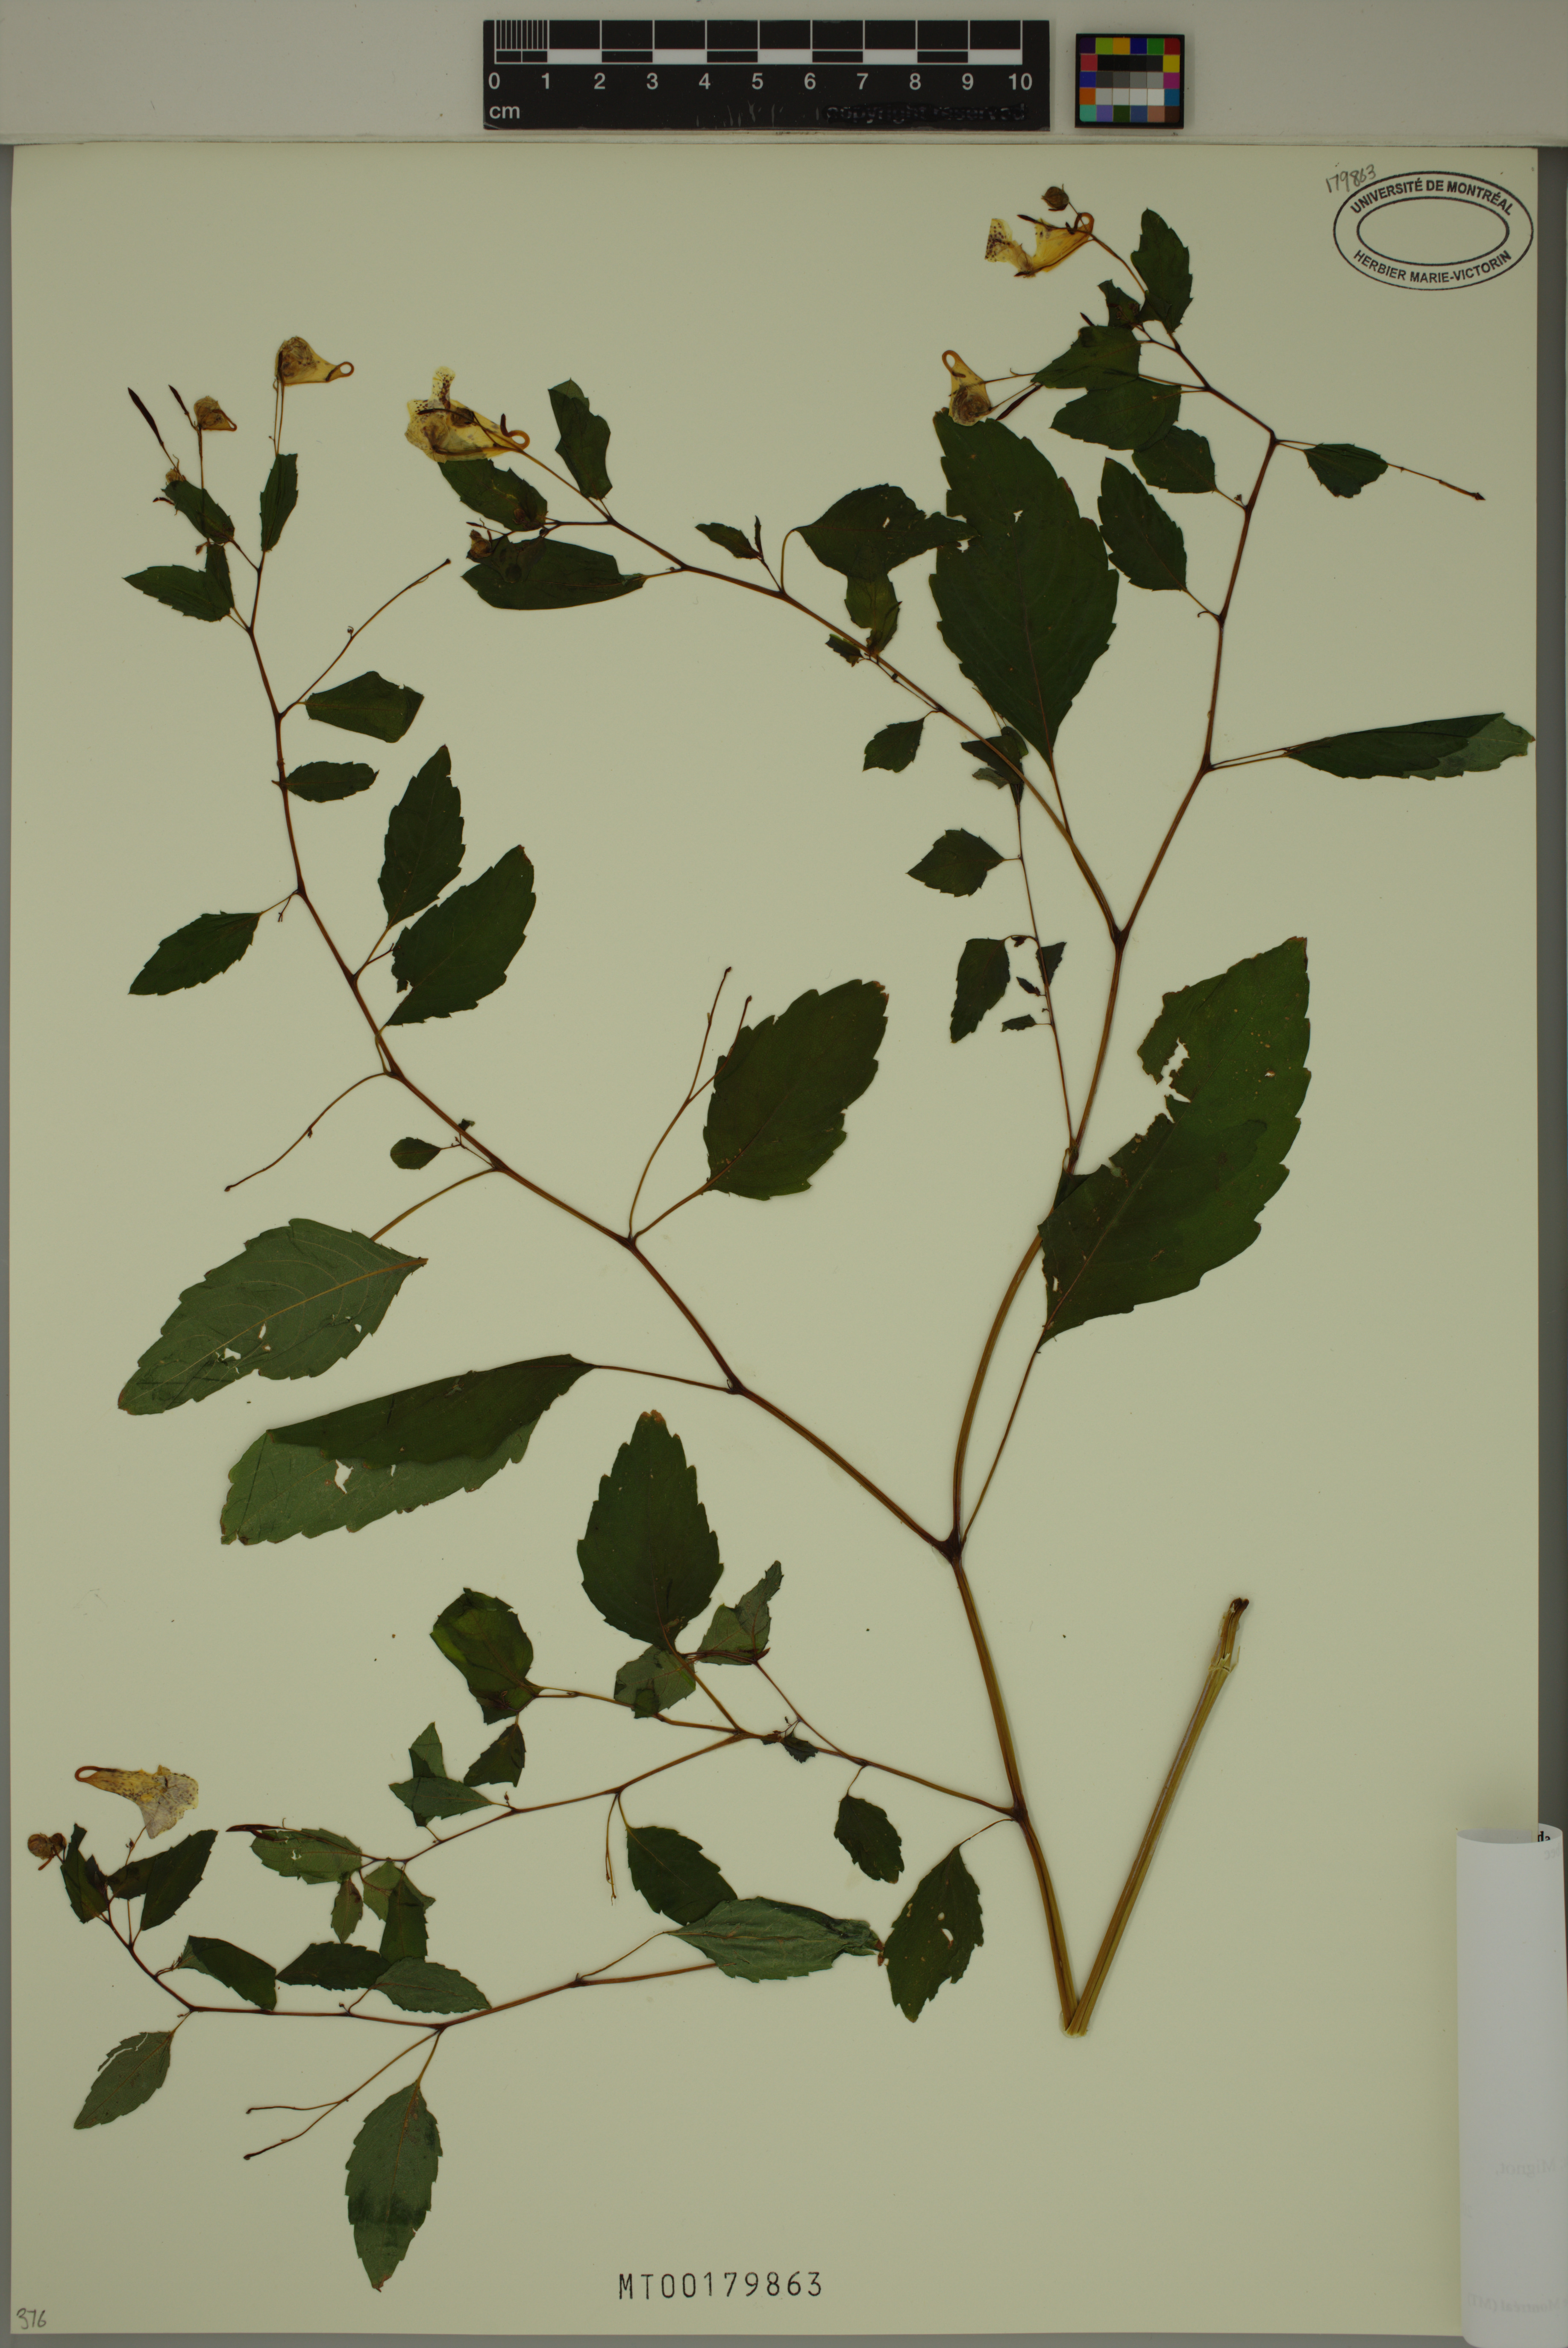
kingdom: Plantae
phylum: Tracheophyta
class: Magnoliopsida
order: Ericales
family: Balsaminaceae
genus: Impatiens
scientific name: Impatiens capensis
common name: Orange balsam
